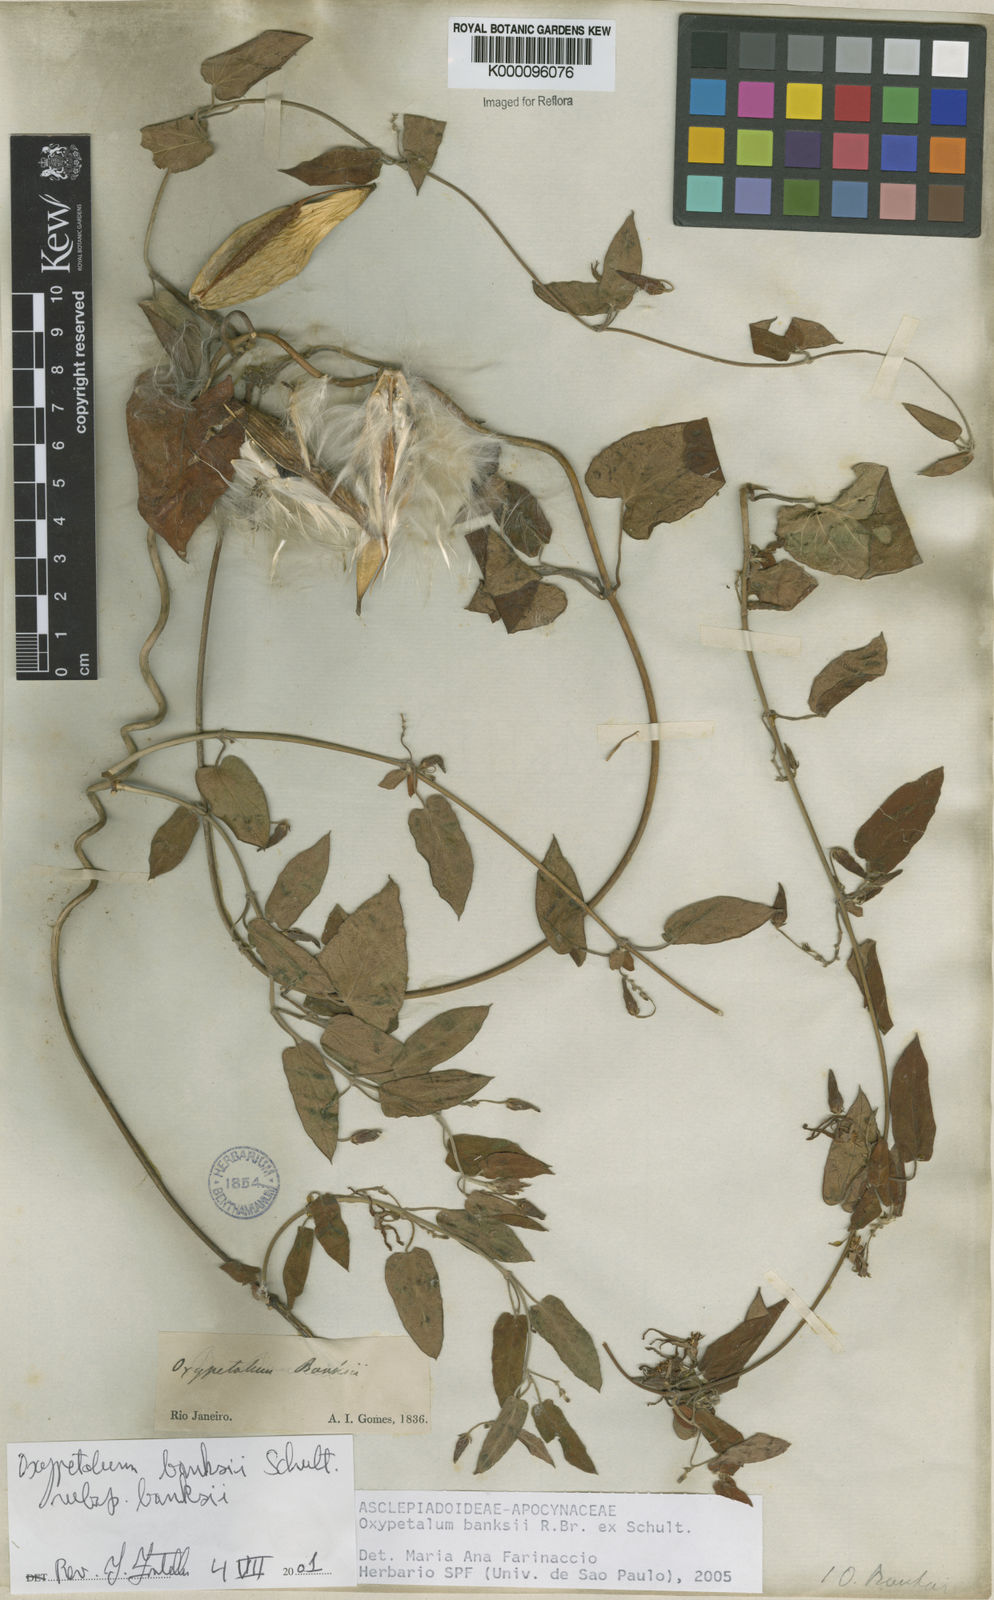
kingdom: Plantae
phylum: Tracheophyta
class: Magnoliopsida
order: Gentianales
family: Apocynaceae
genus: Oxypetalum
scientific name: Oxypetalum banksii
